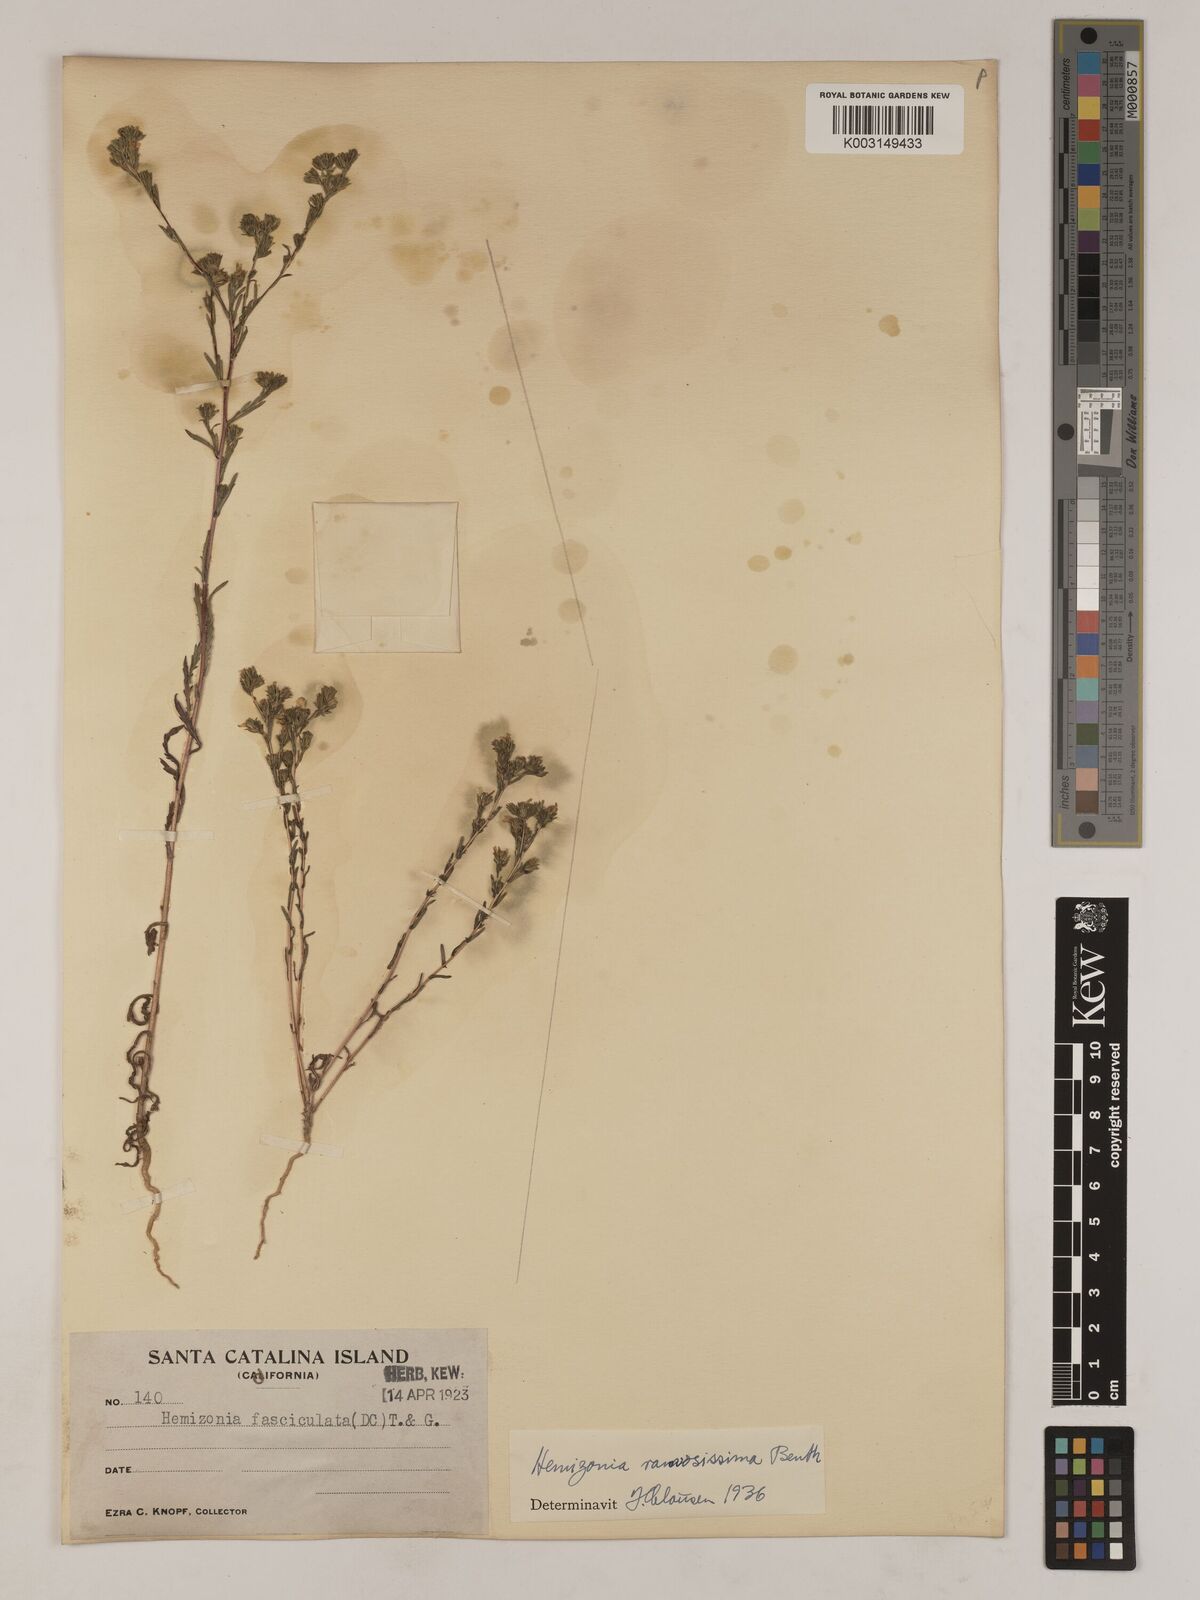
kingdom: Plantae
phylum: Tracheophyta
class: Magnoliopsida
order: Asterales
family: Asteraceae
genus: Deinandra
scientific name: Deinandra fasciculata
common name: Clustered tarweed
